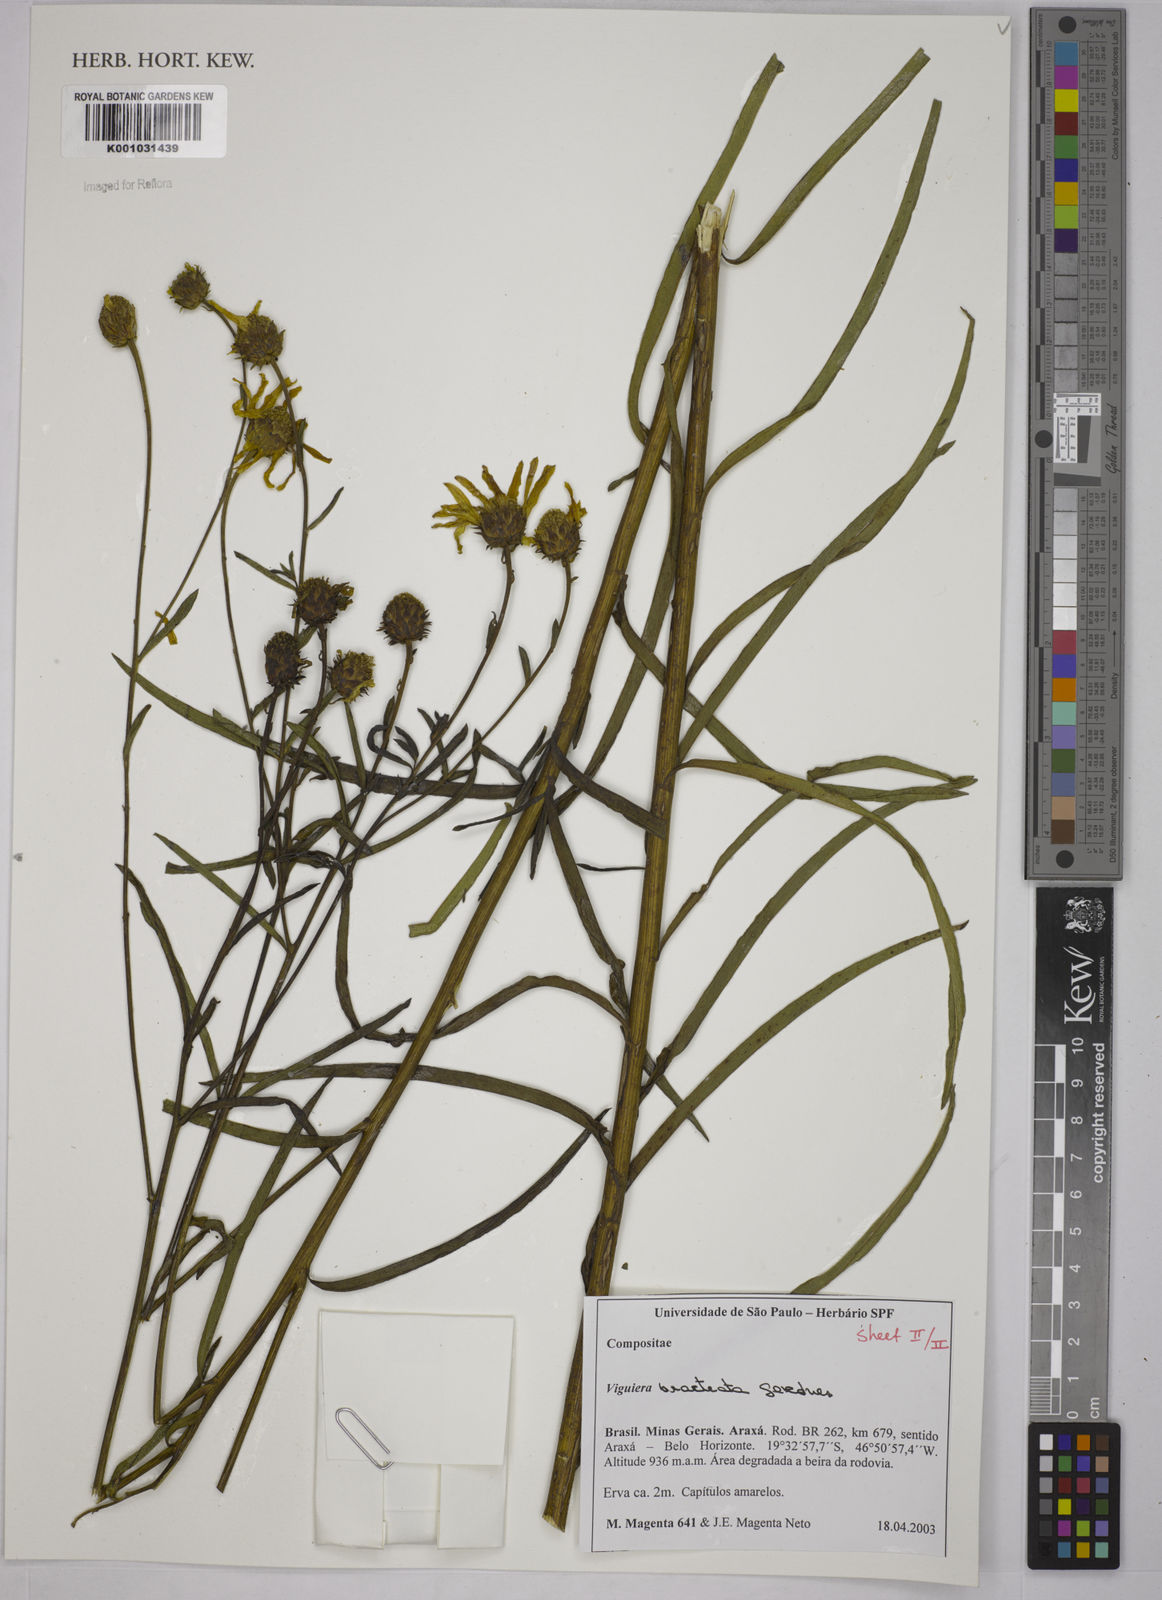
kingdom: Plantae
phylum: Tracheophyta
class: Magnoliopsida
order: Asterales
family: Asteraceae
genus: Aldama
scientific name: Aldama bracteata
